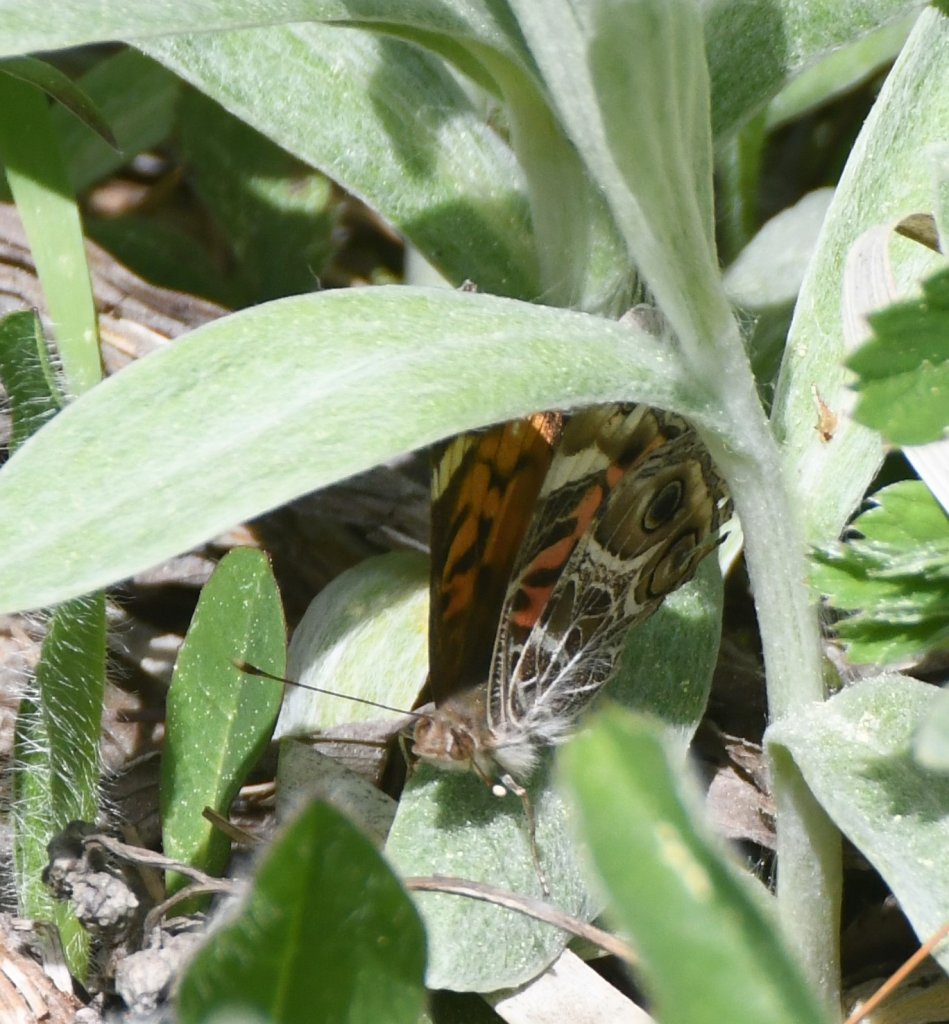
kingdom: Animalia
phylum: Arthropoda
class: Insecta
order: Lepidoptera
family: Nymphalidae
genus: Vanessa
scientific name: Vanessa virginiensis
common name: American Lady
